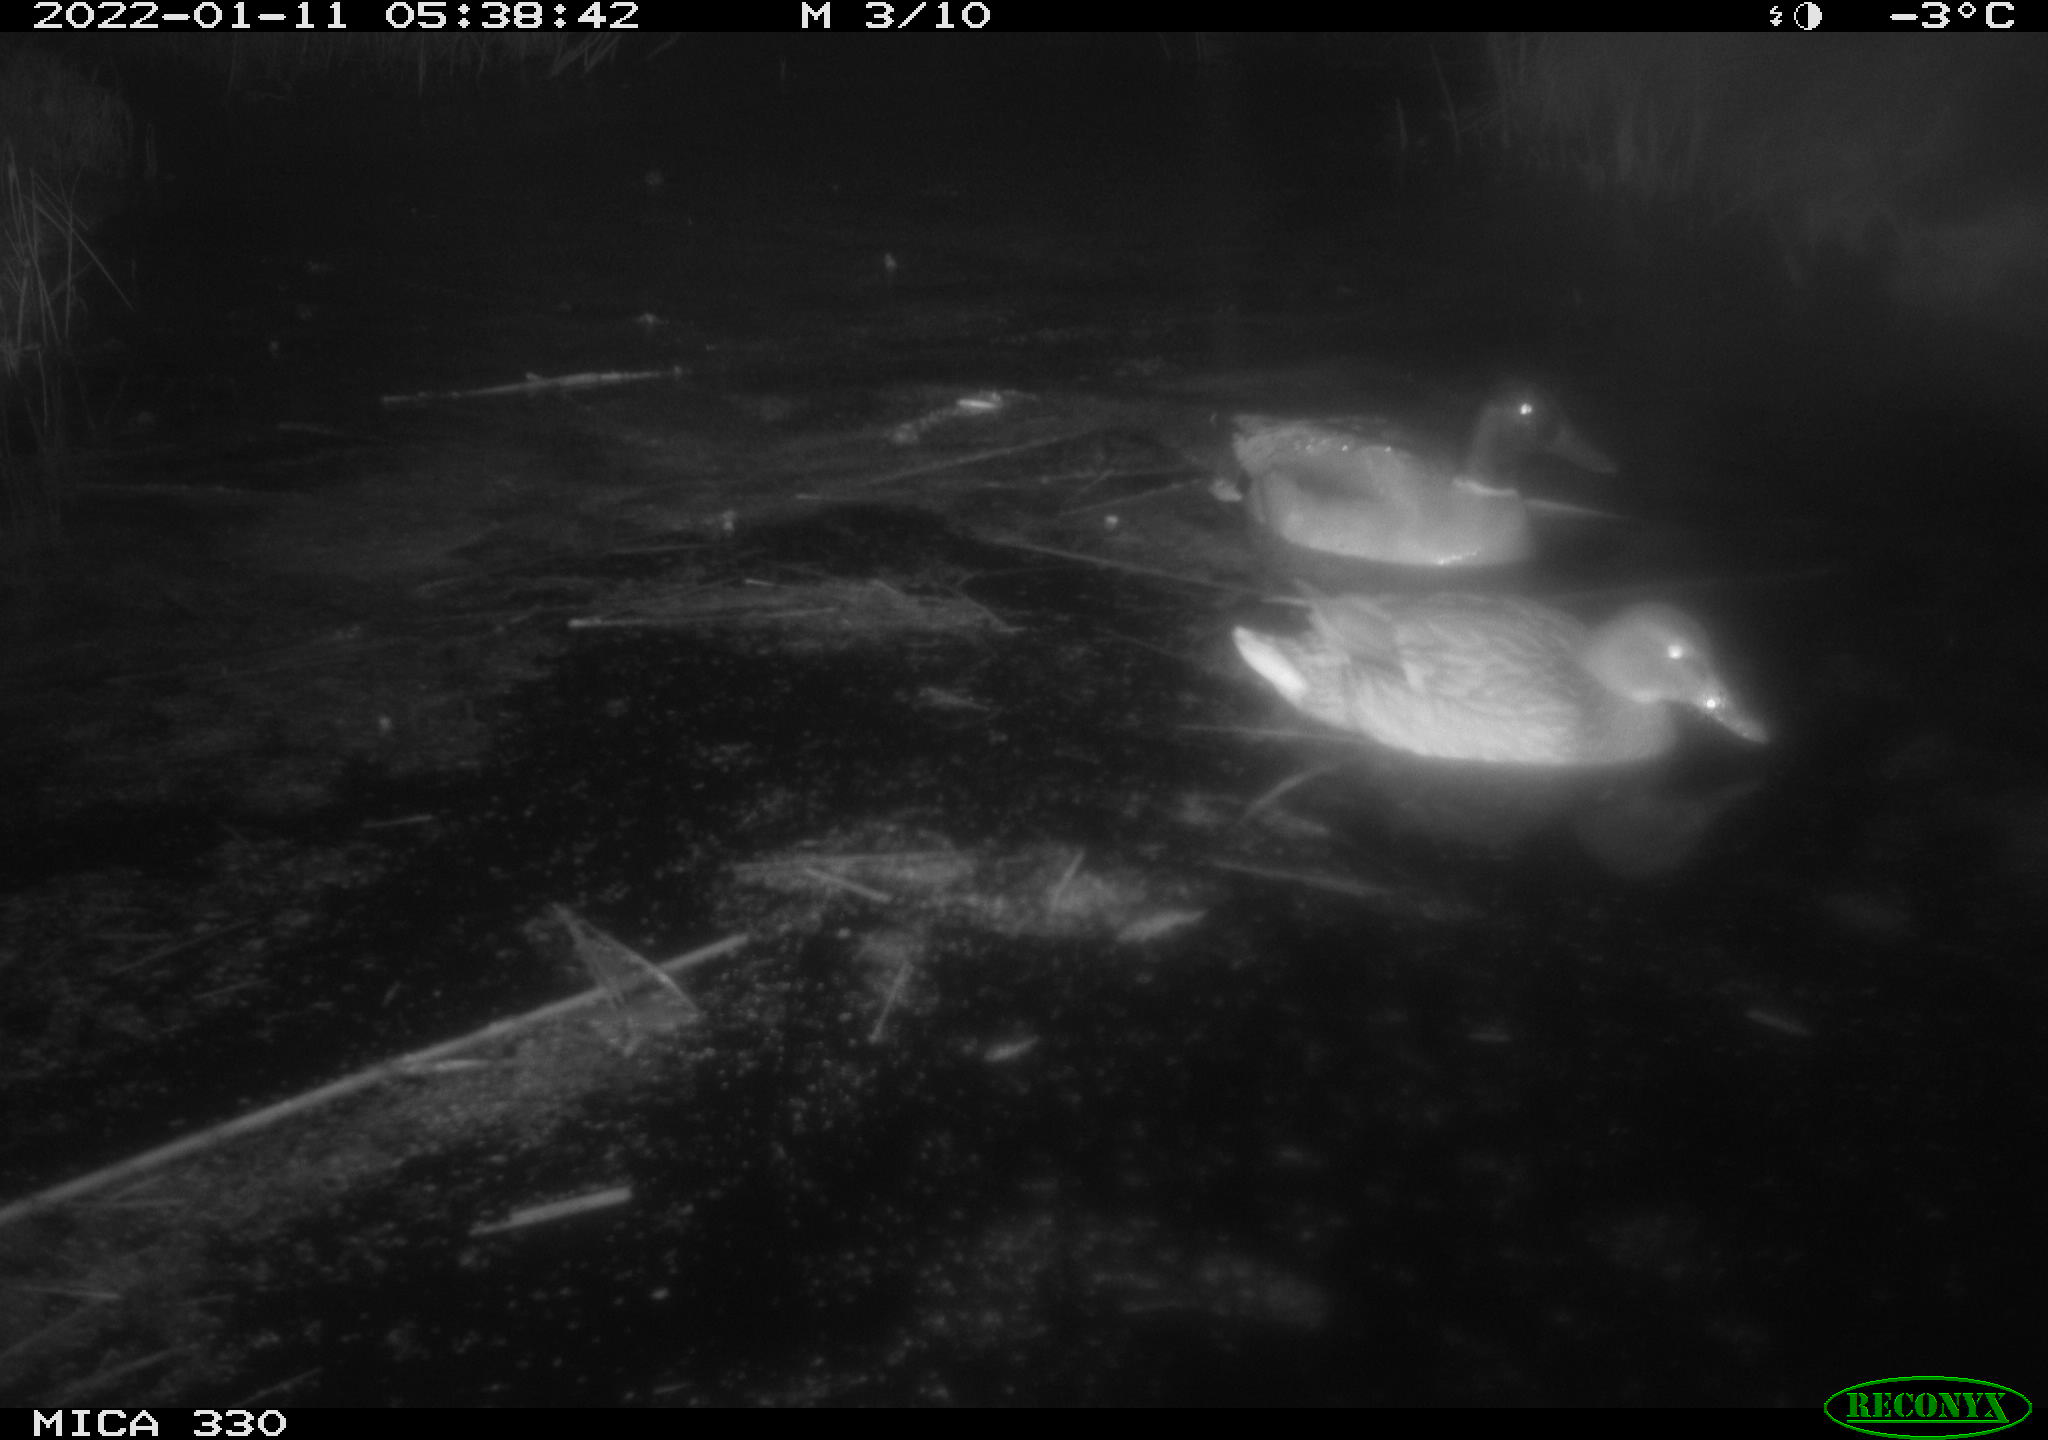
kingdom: Animalia
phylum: Chordata
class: Aves
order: Anseriformes
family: Anatidae
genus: Anas
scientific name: Anas platyrhynchos
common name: Mallard
